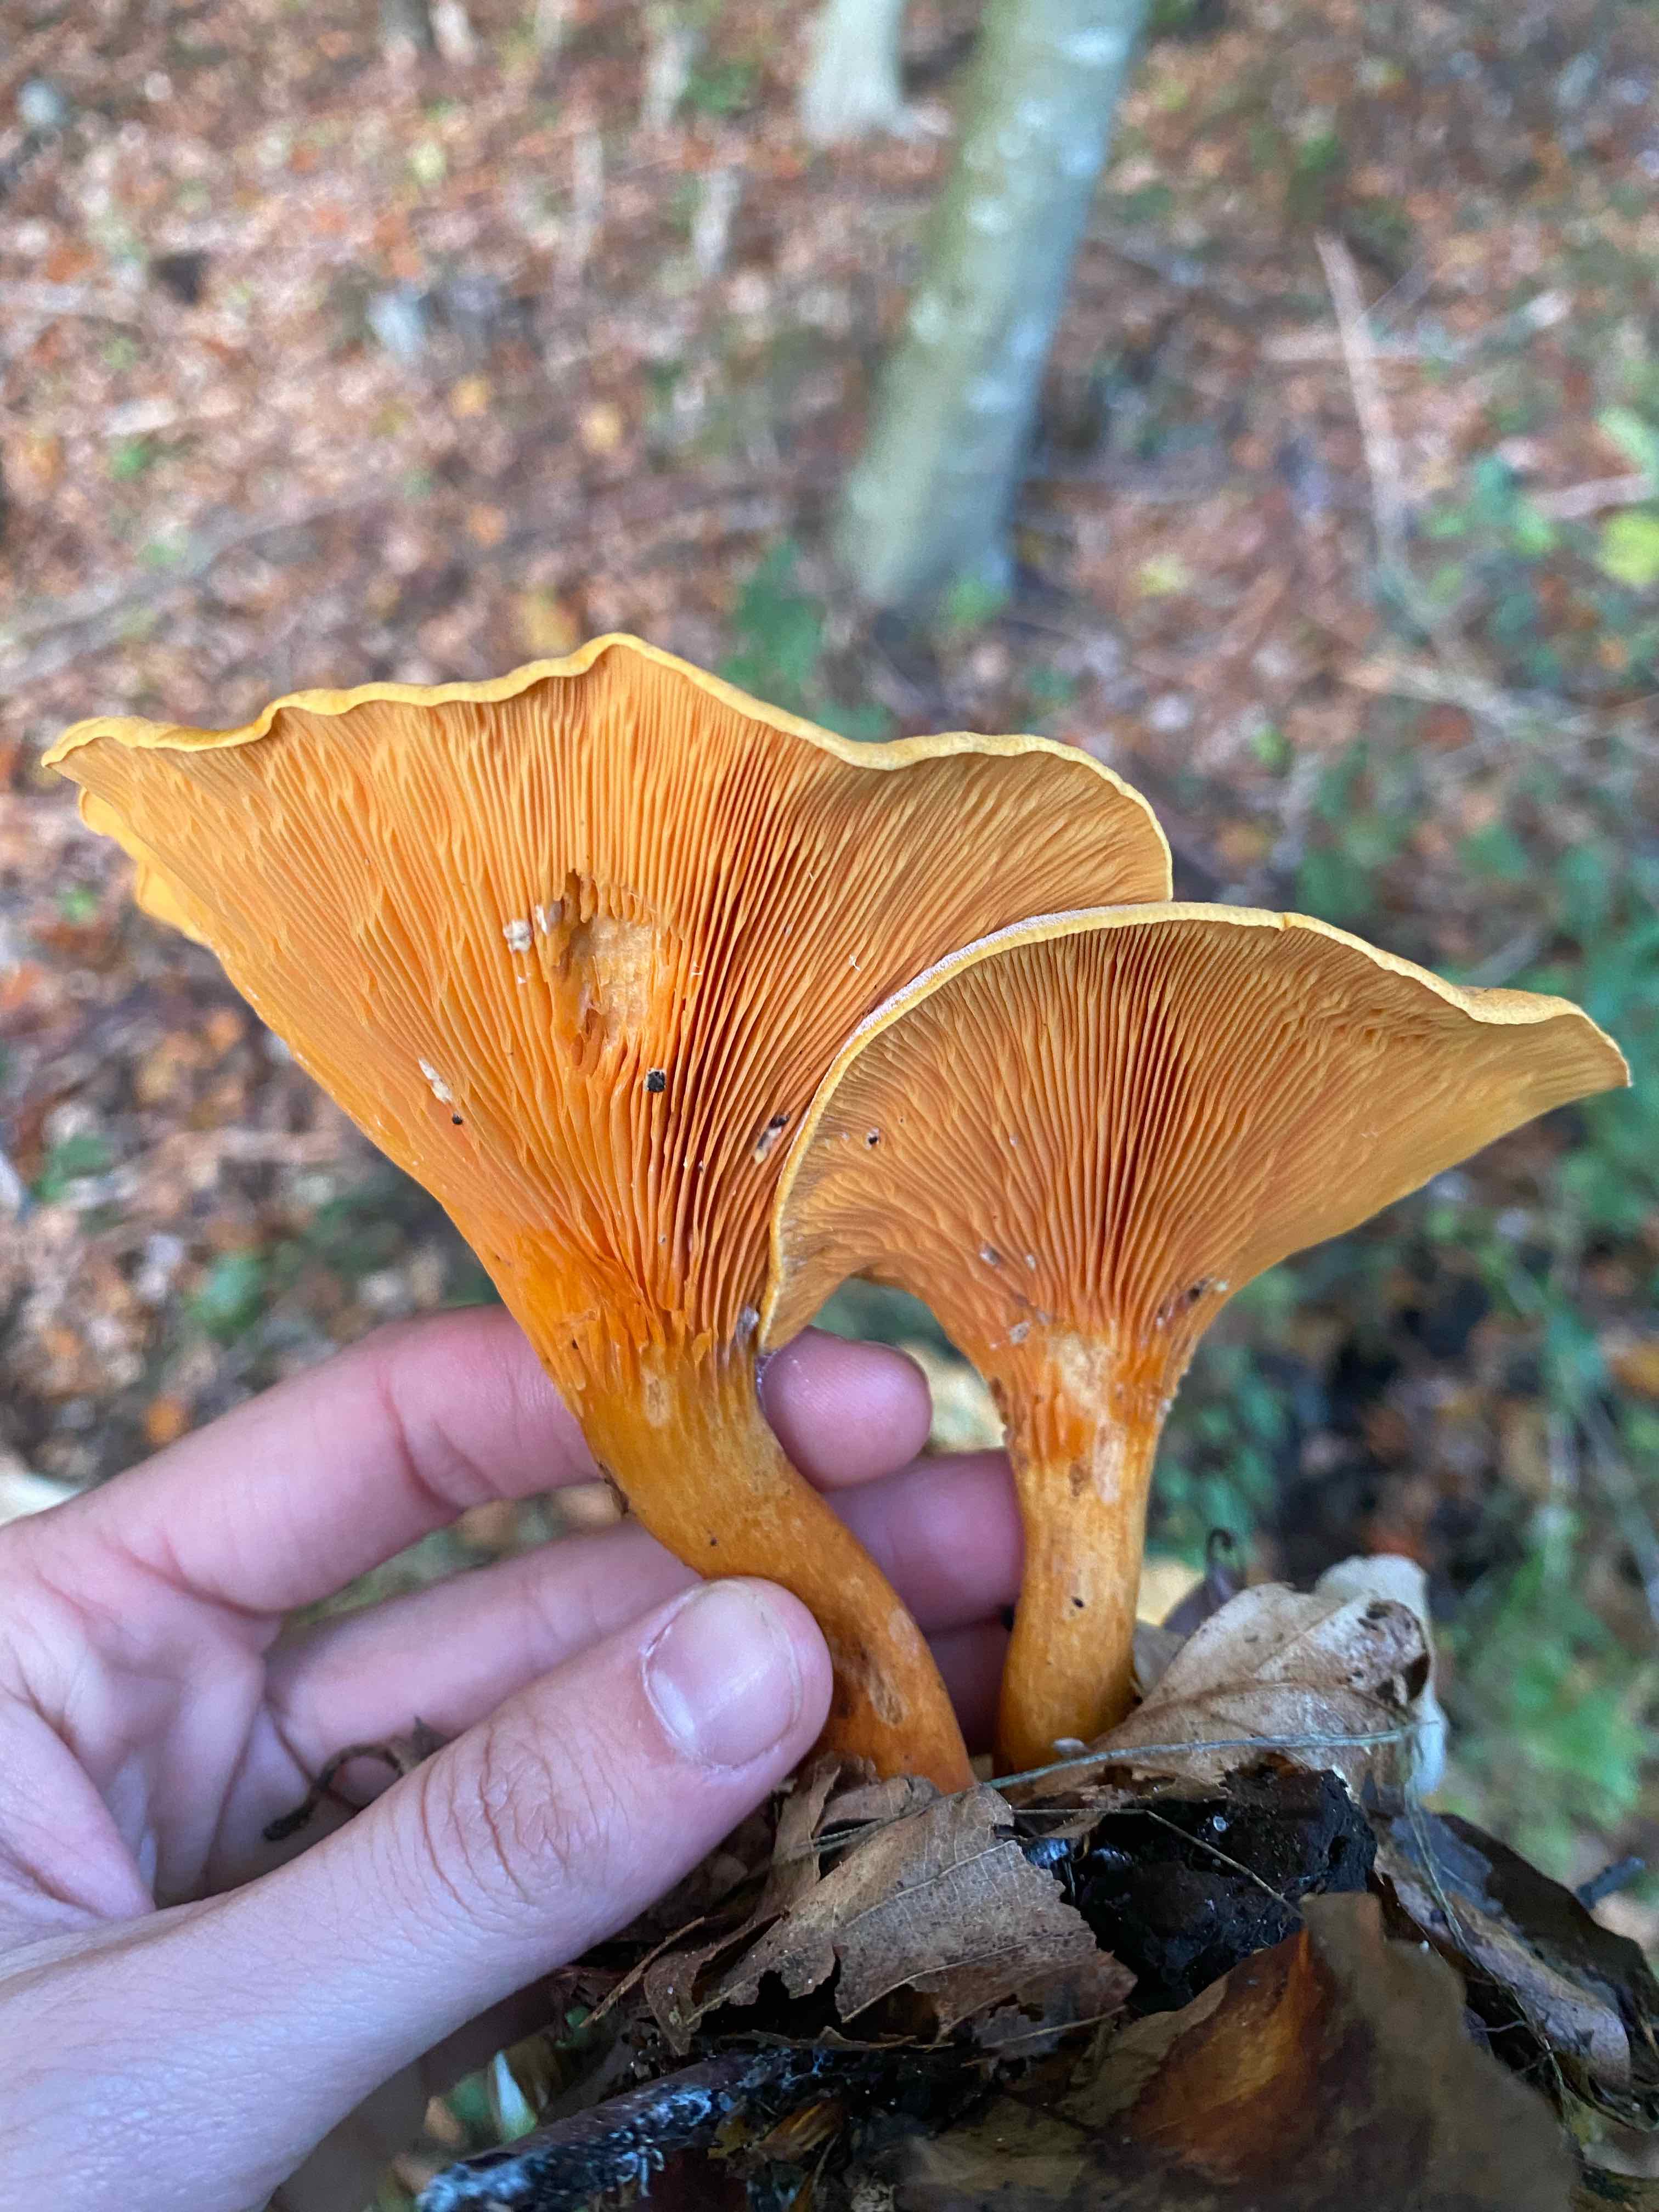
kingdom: Fungi
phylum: Basidiomycota
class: Agaricomycetes
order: Boletales
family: Hygrophoropsidaceae
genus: Hygrophoropsis
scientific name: Hygrophoropsis aurantiaca
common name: almindelig orangekantarel
